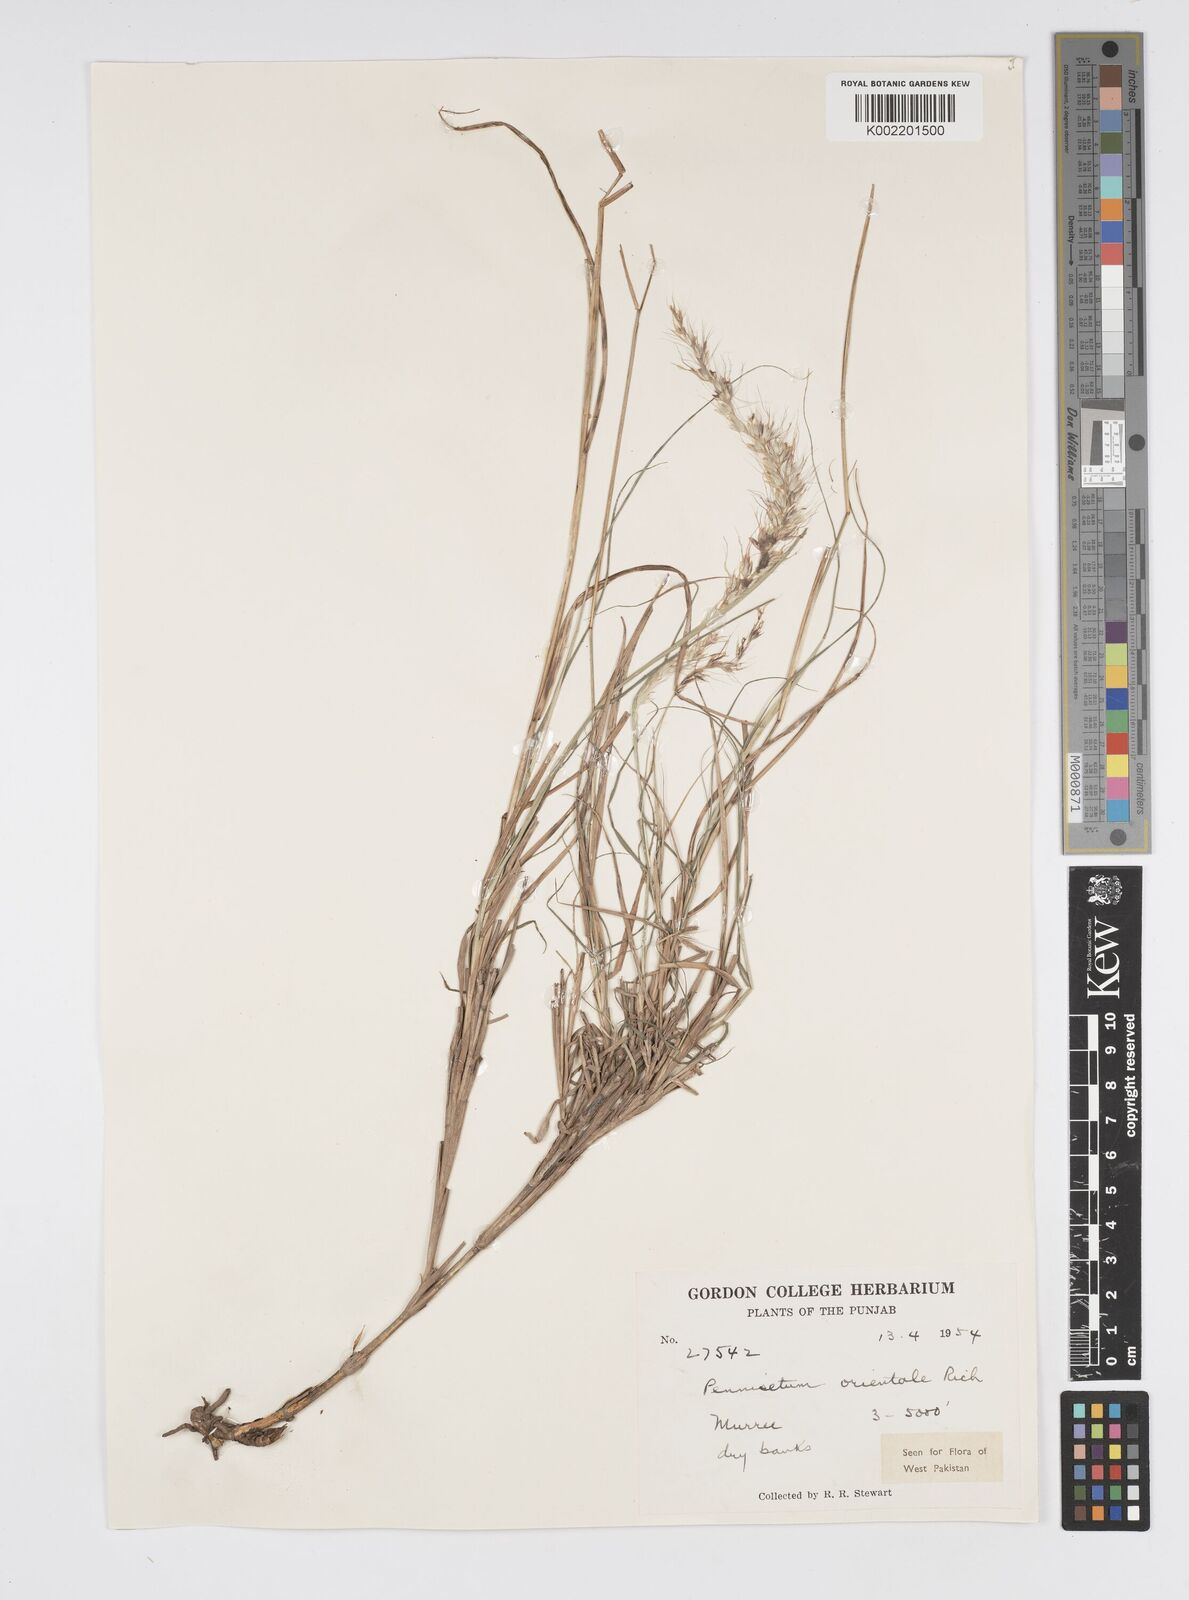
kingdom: Plantae
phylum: Tracheophyta
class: Liliopsida
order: Poales
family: Poaceae
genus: Cenchrus
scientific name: Cenchrus orientalis
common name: Oriental fountain grass
